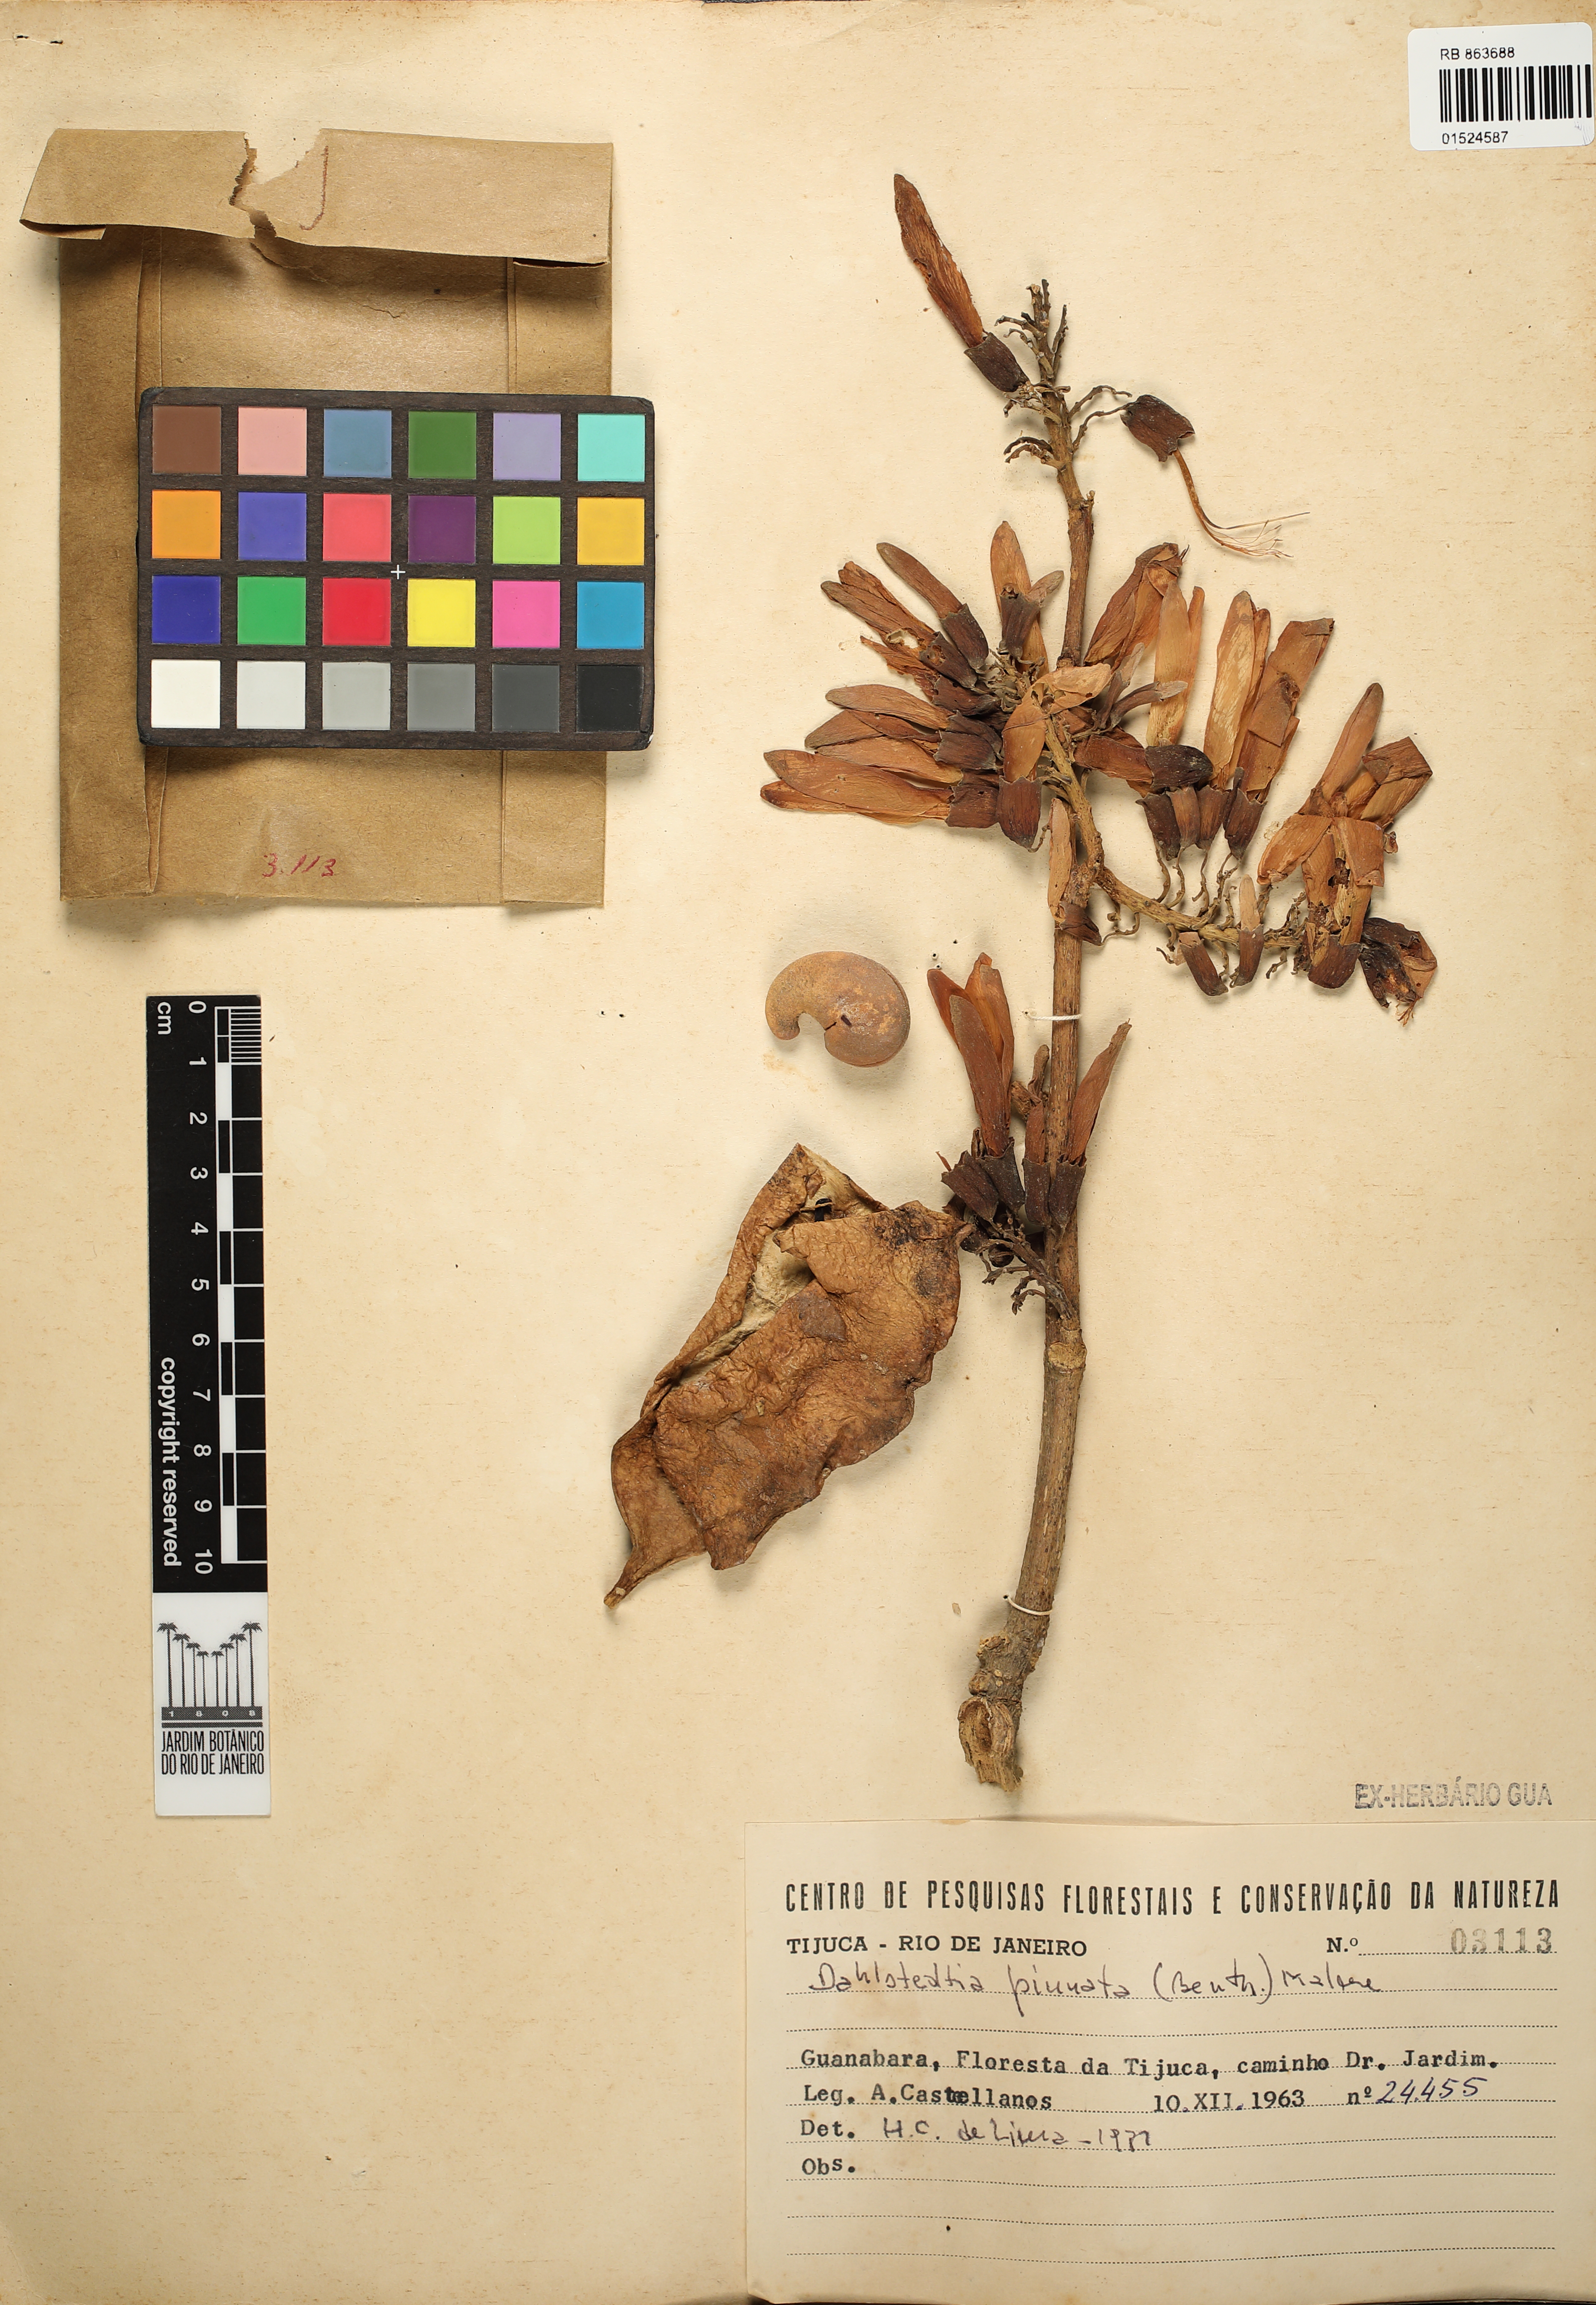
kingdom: Plantae
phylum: Tracheophyta
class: Magnoliopsida
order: Fabales
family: Fabaceae
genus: Dahlstedtia
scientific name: Dahlstedtia pinnata
